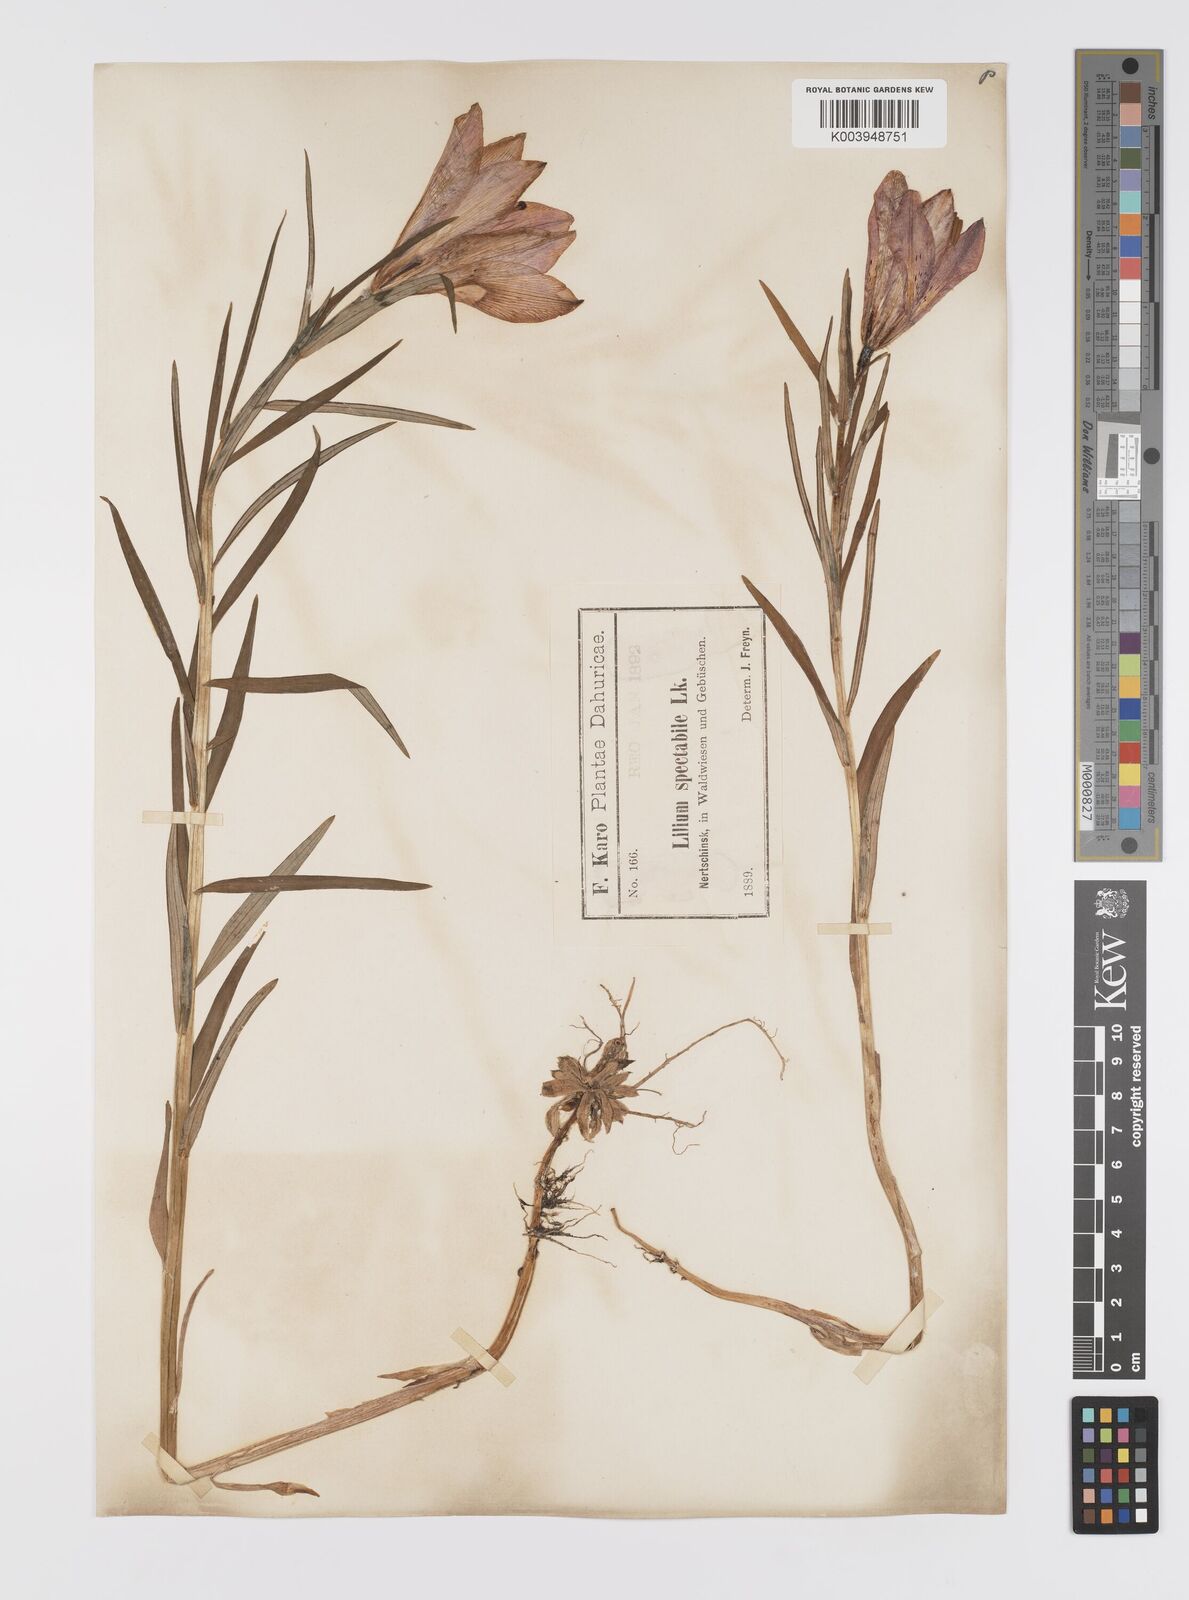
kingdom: Plantae
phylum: Tracheophyta
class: Liliopsida
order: Liliales
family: Liliaceae
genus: Lilium
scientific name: Lilium pensylvanicum
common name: Candlestick lily
